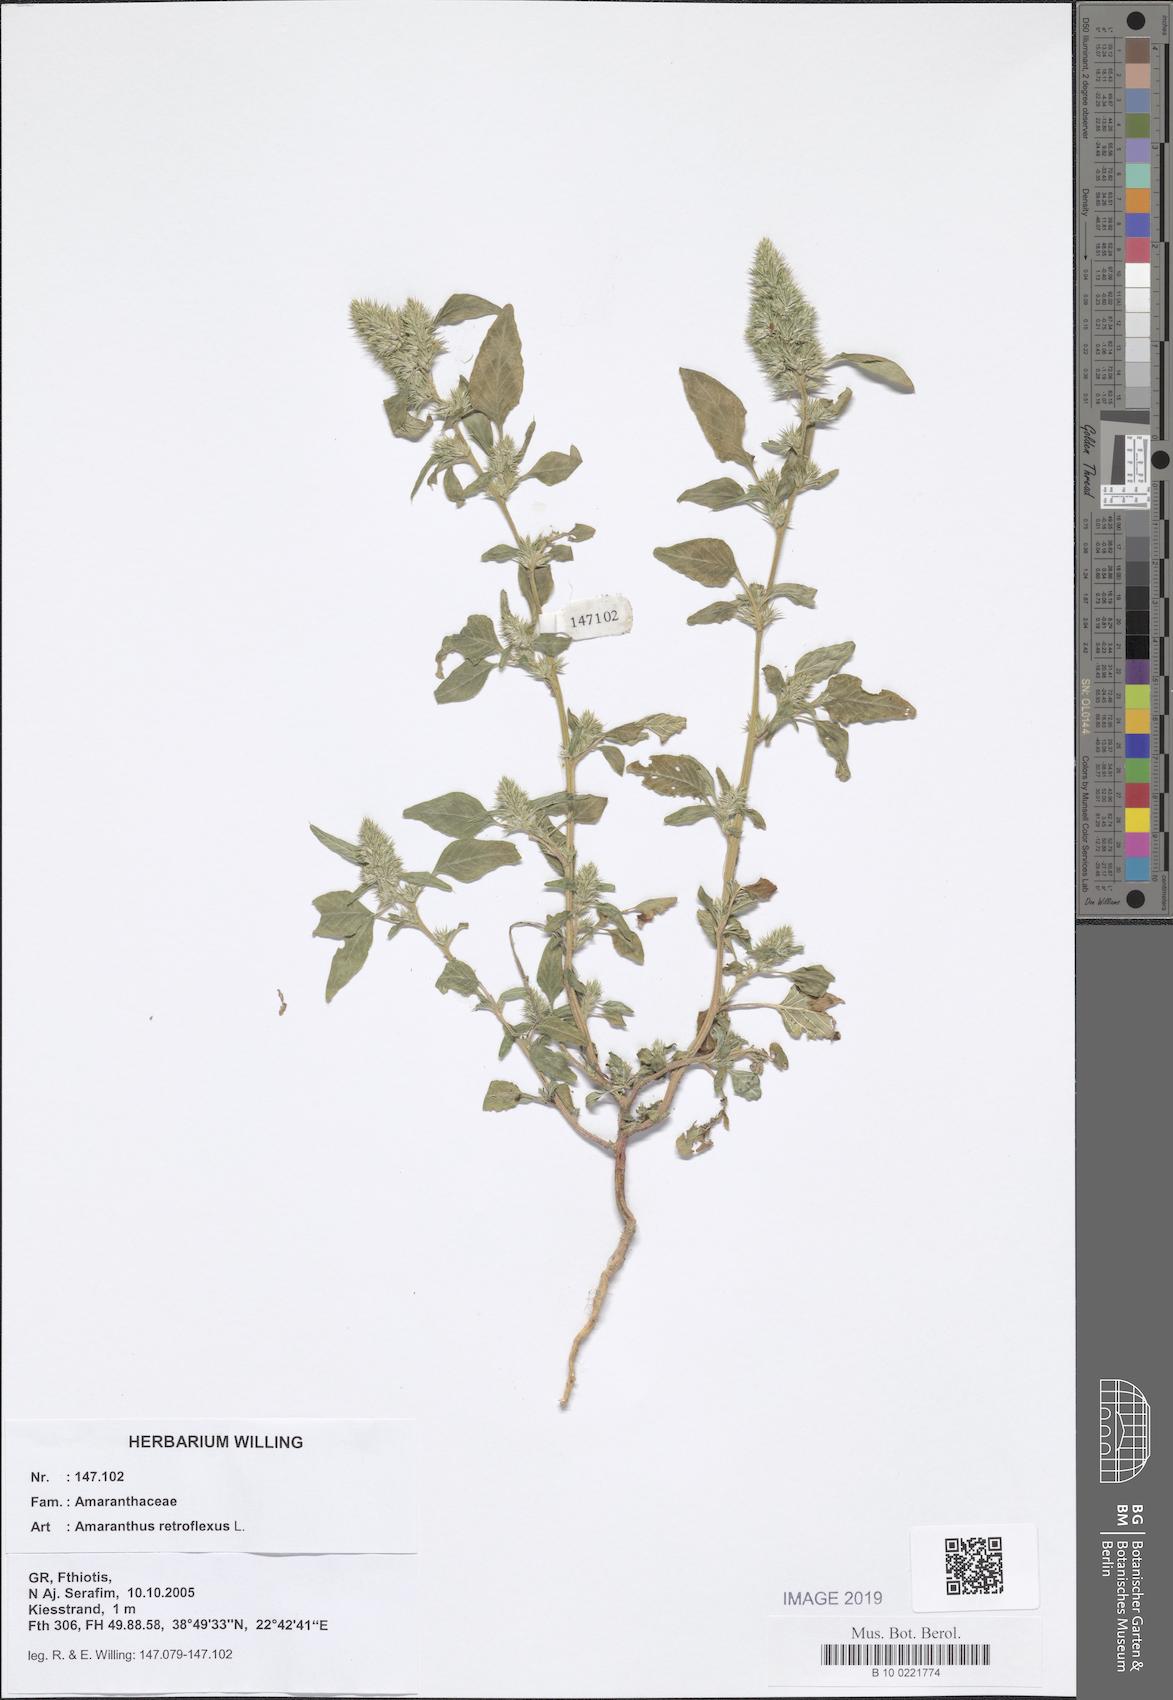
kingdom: Plantae
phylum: Tracheophyta
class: Magnoliopsida
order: Caryophyllales
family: Amaranthaceae
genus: Amaranthus
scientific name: Amaranthus retroflexus
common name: Redroot amaranth
